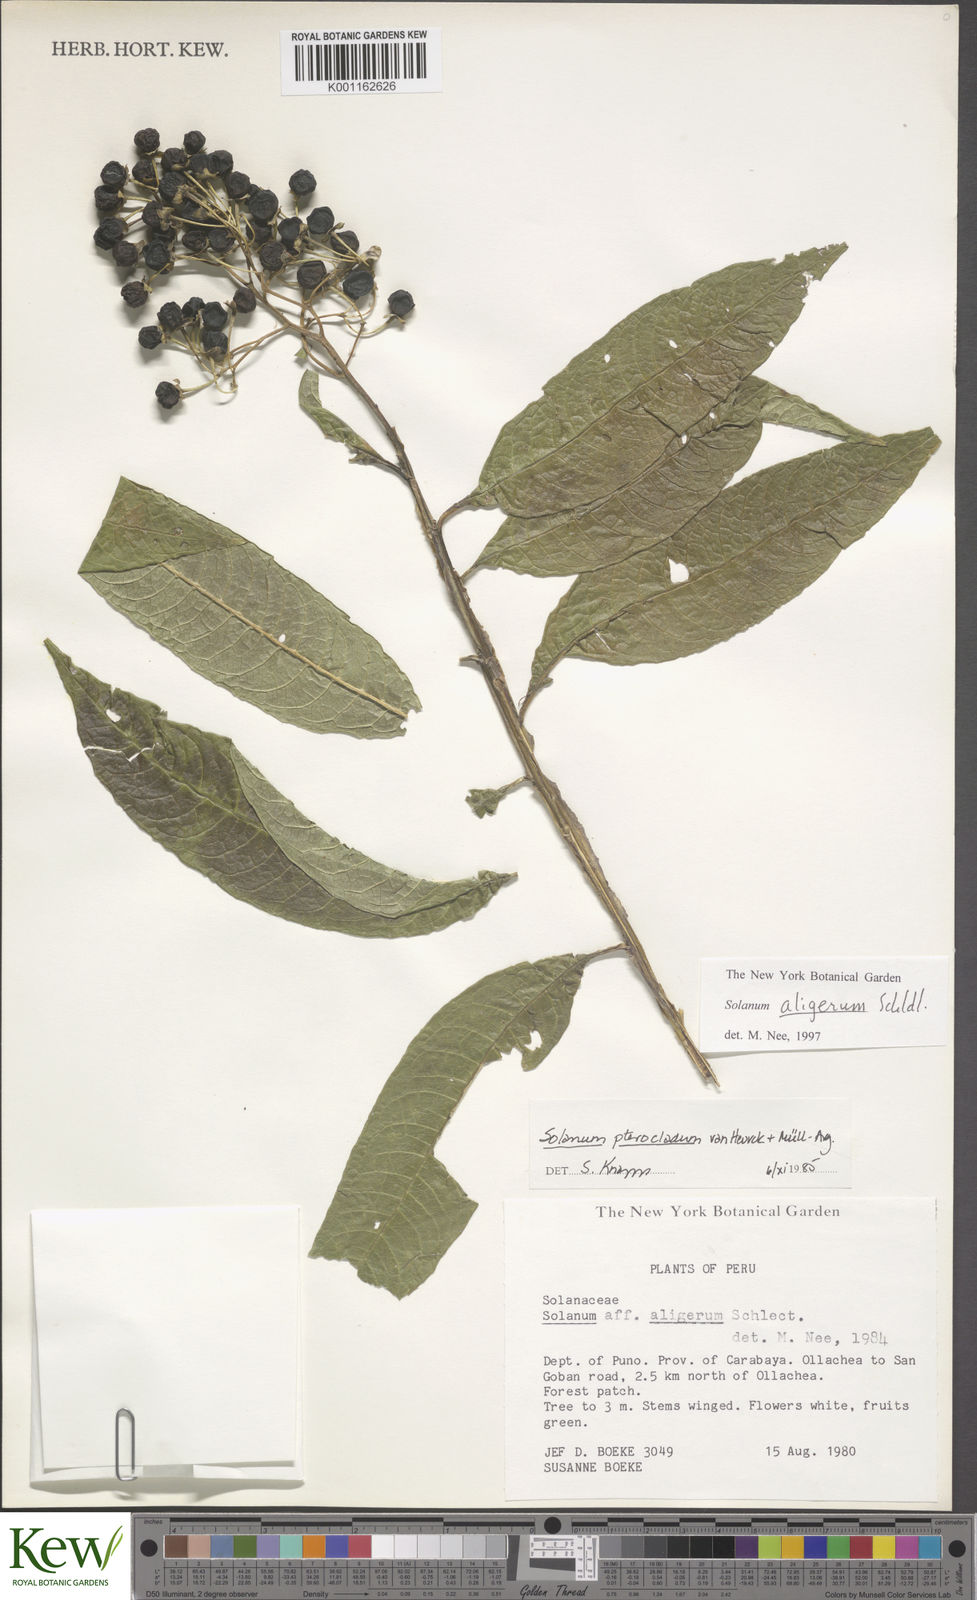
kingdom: Plantae
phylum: Tracheophyta
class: Magnoliopsida
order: Solanales
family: Solanaceae
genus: Solanum
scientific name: Solanum aligerum
